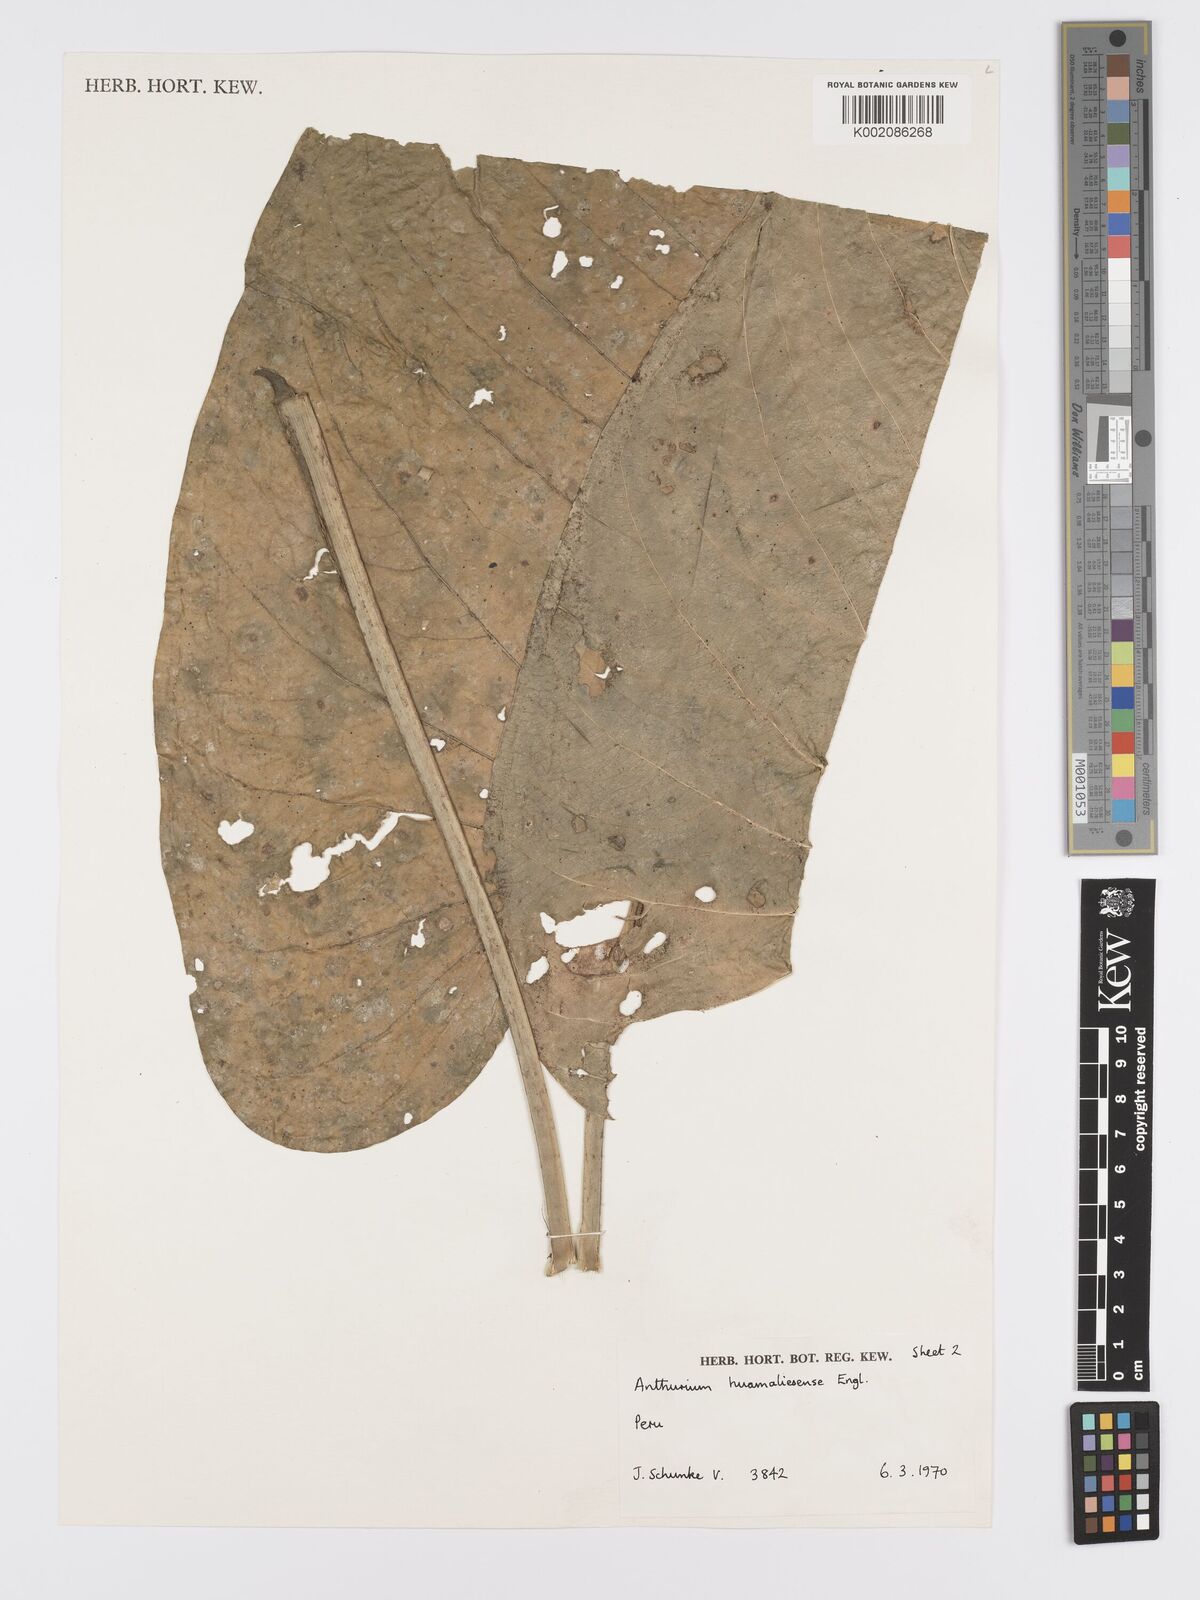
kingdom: Plantae
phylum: Tracheophyta
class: Liliopsida
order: Alismatales
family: Araceae
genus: Anthurium
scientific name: Anthurium breviscapum
